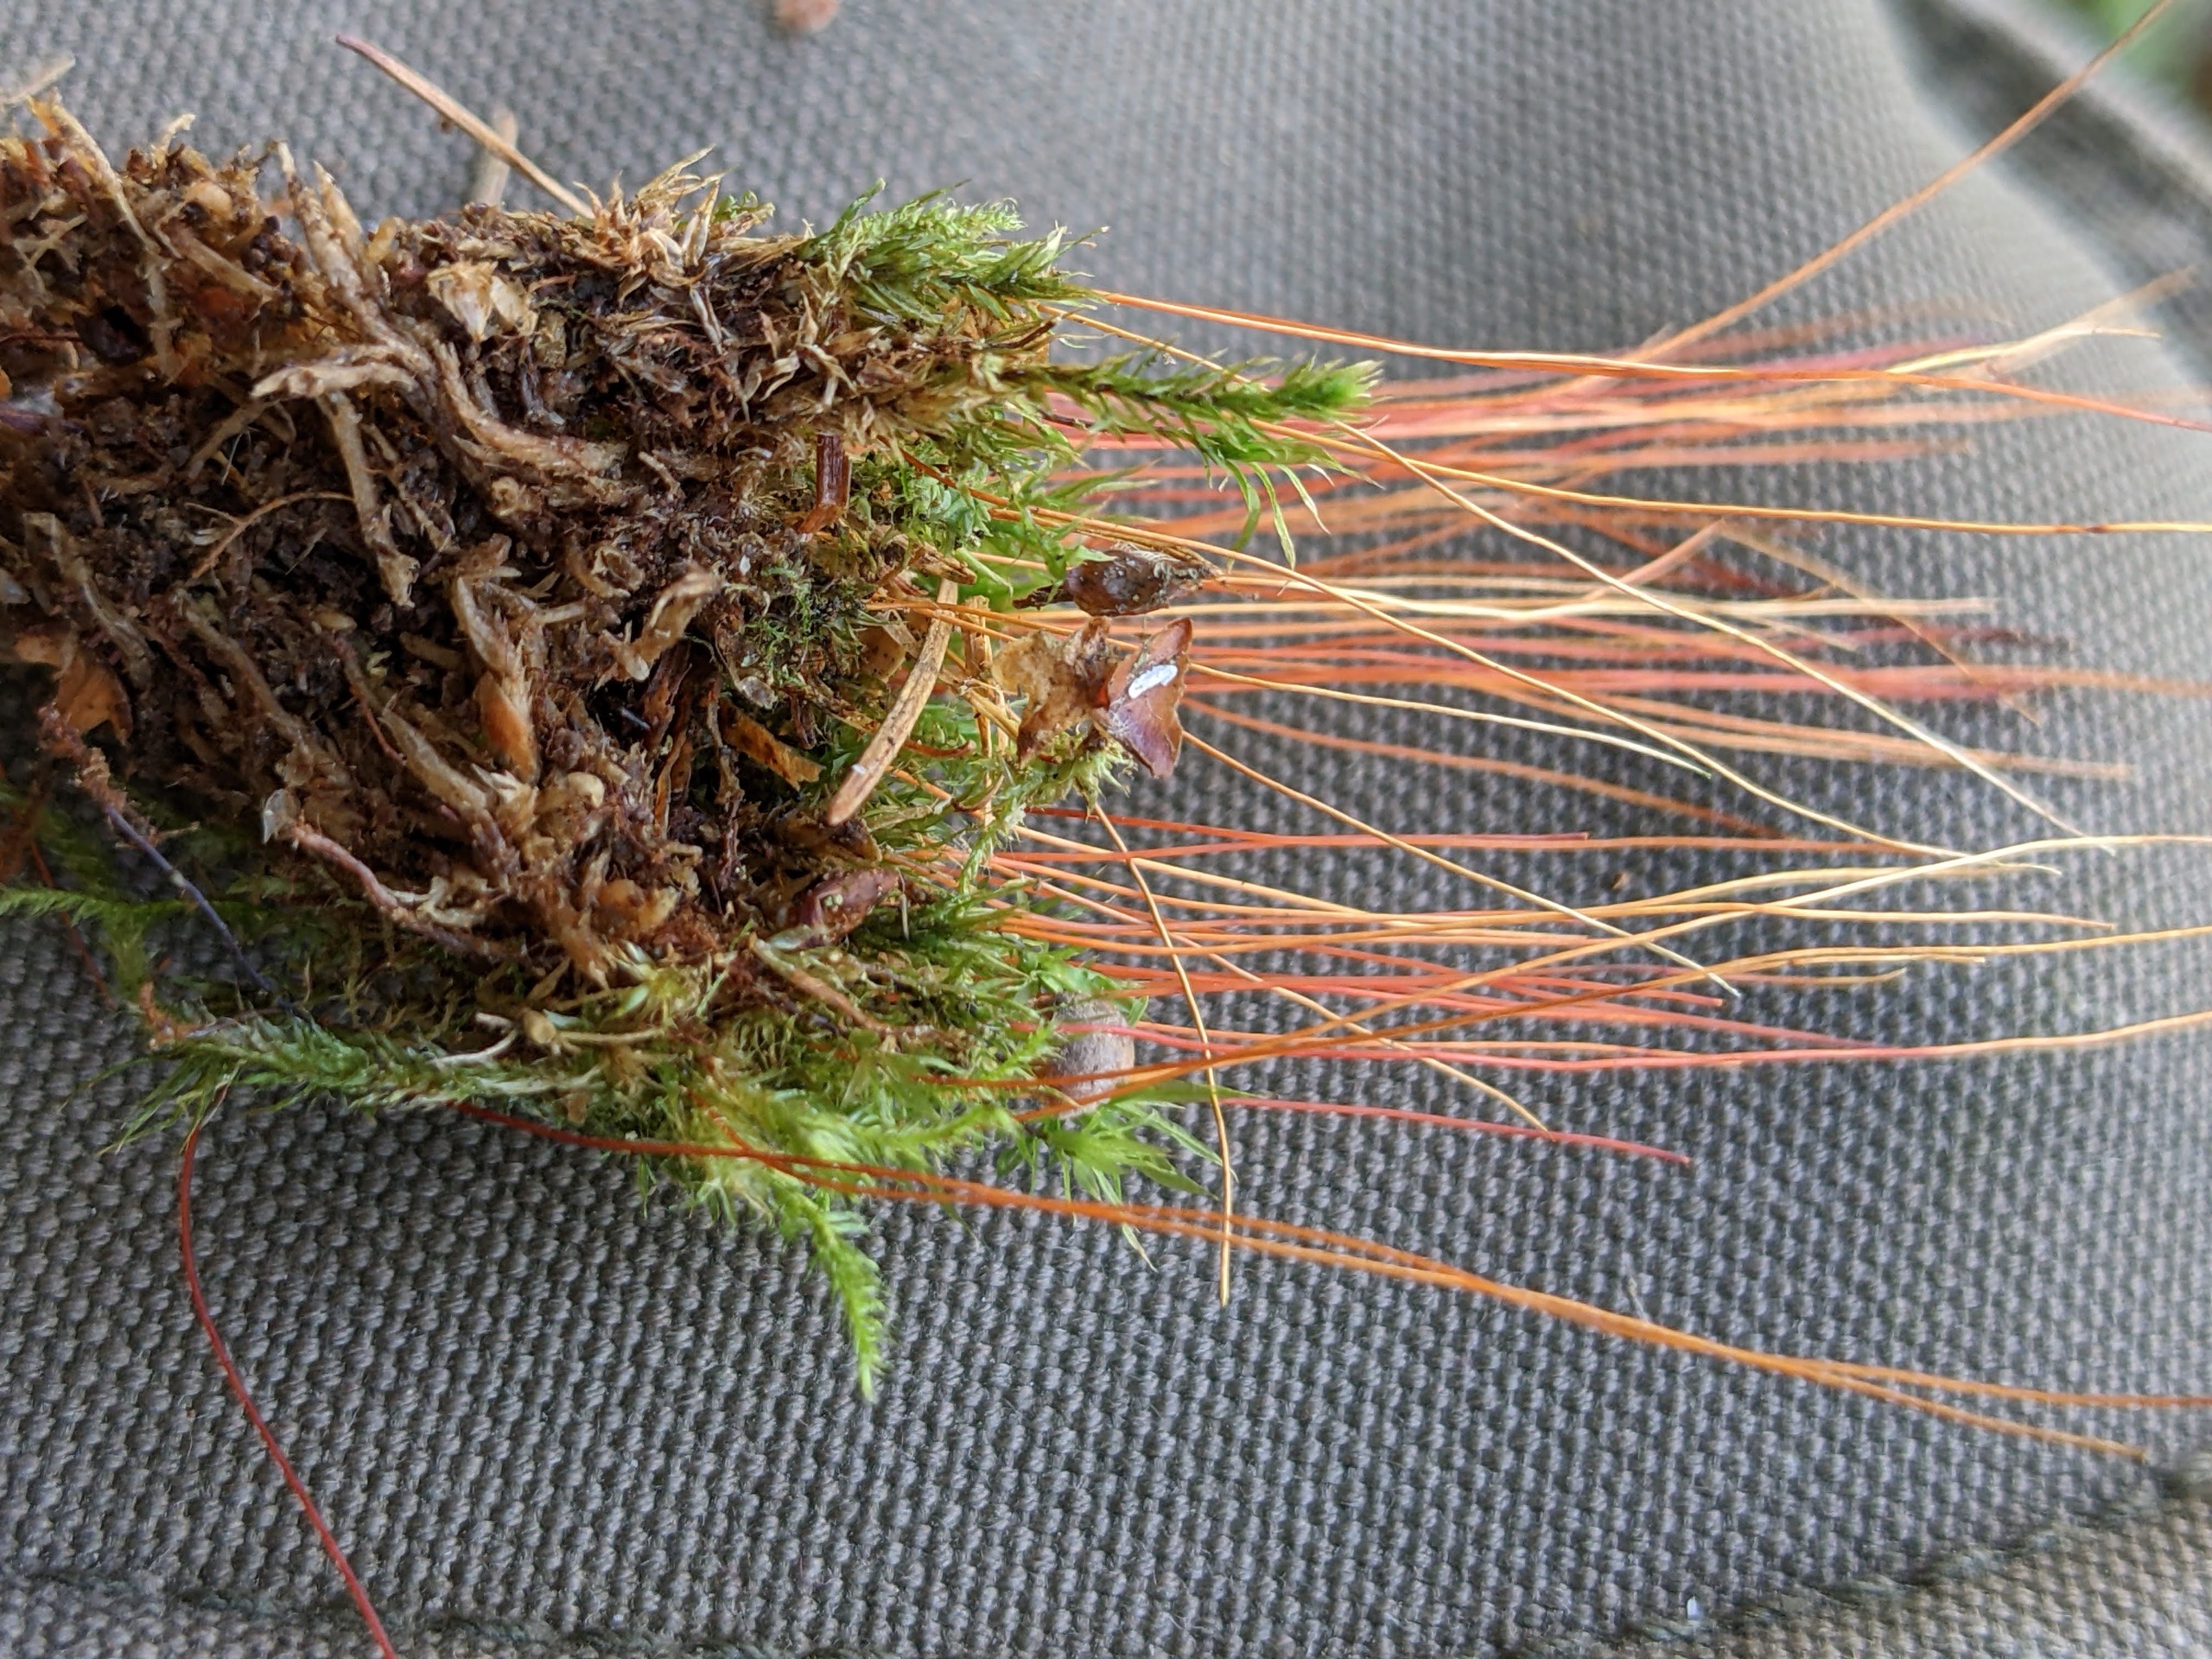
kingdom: Plantae
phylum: Bryophyta
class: Bryopsida
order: Bryales
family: Mniaceae
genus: Pohlia
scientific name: Pohlia nutans
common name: Almindelig nikkemos
